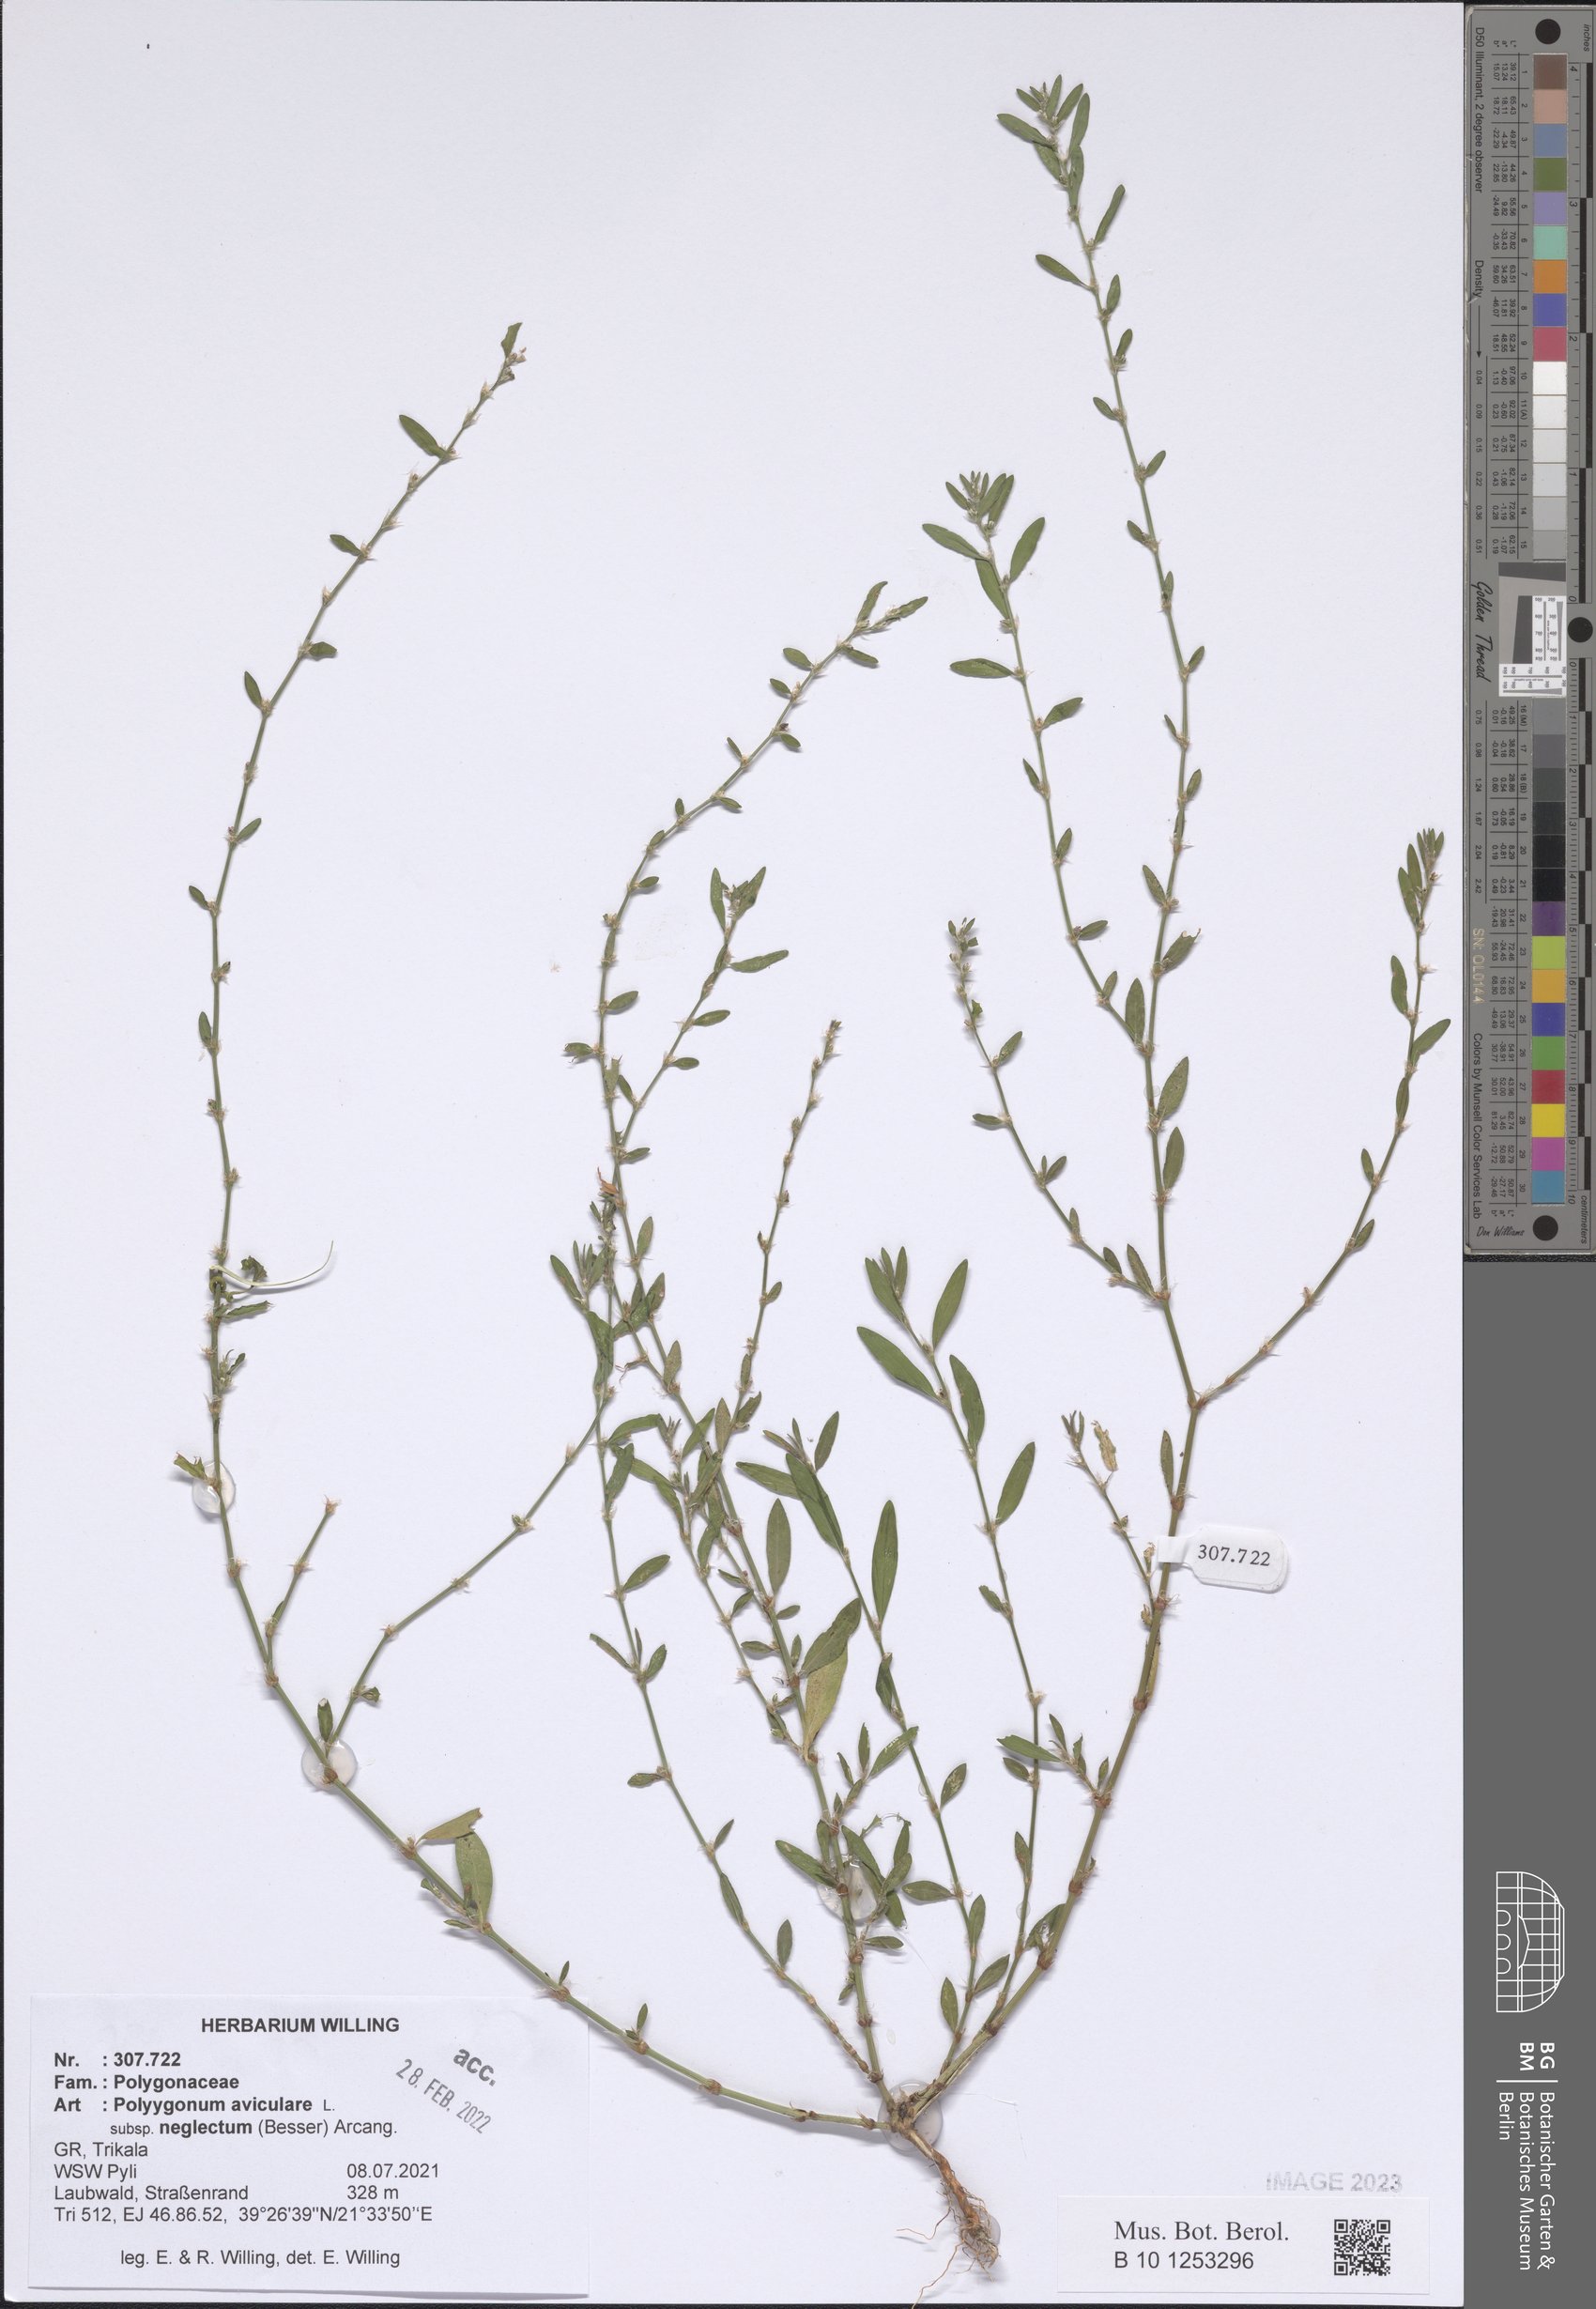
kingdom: Plantae
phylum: Tracheophyta
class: Magnoliopsida
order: Caryophyllales
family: Polygonaceae
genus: Polygonum
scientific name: Polygonum aviculare
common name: Prostrate knotweed
